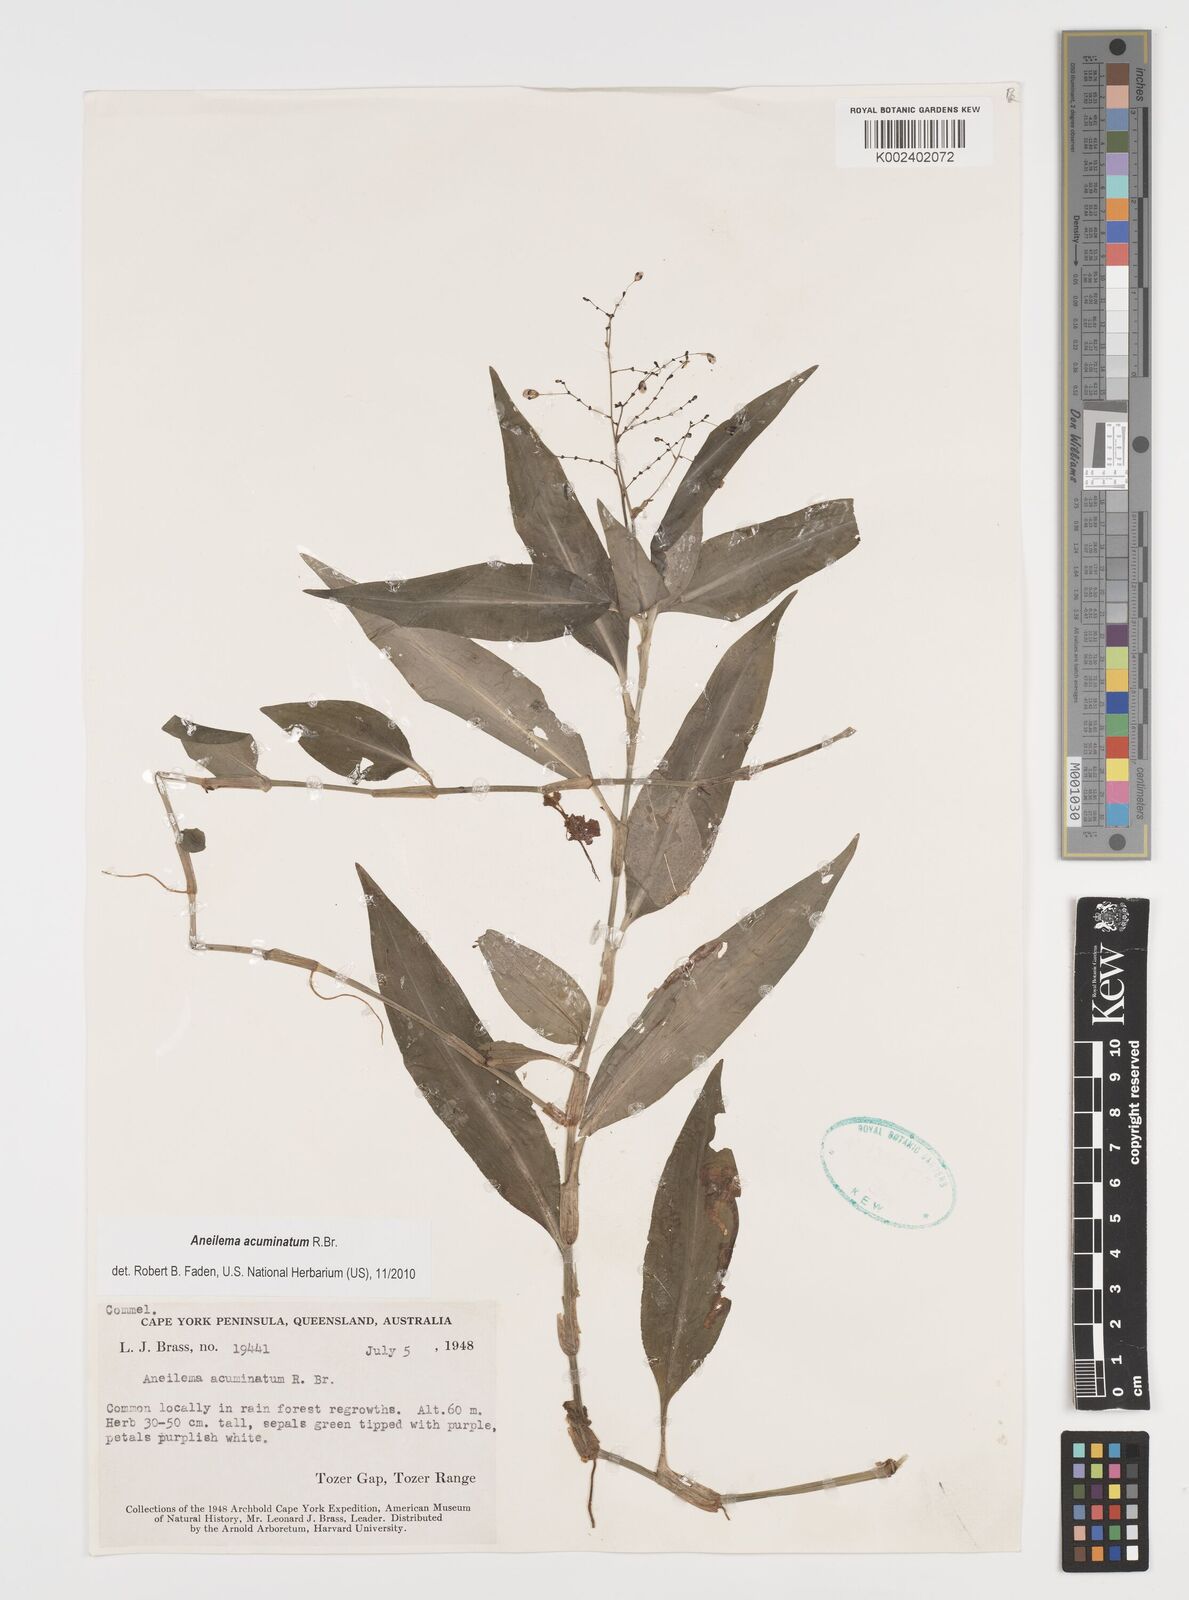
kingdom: Plantae
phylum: Tracheophyta
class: Liliopsida
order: Commelinales
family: Commelinaceae
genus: Aneilema
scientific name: Aneilema acuminatum
